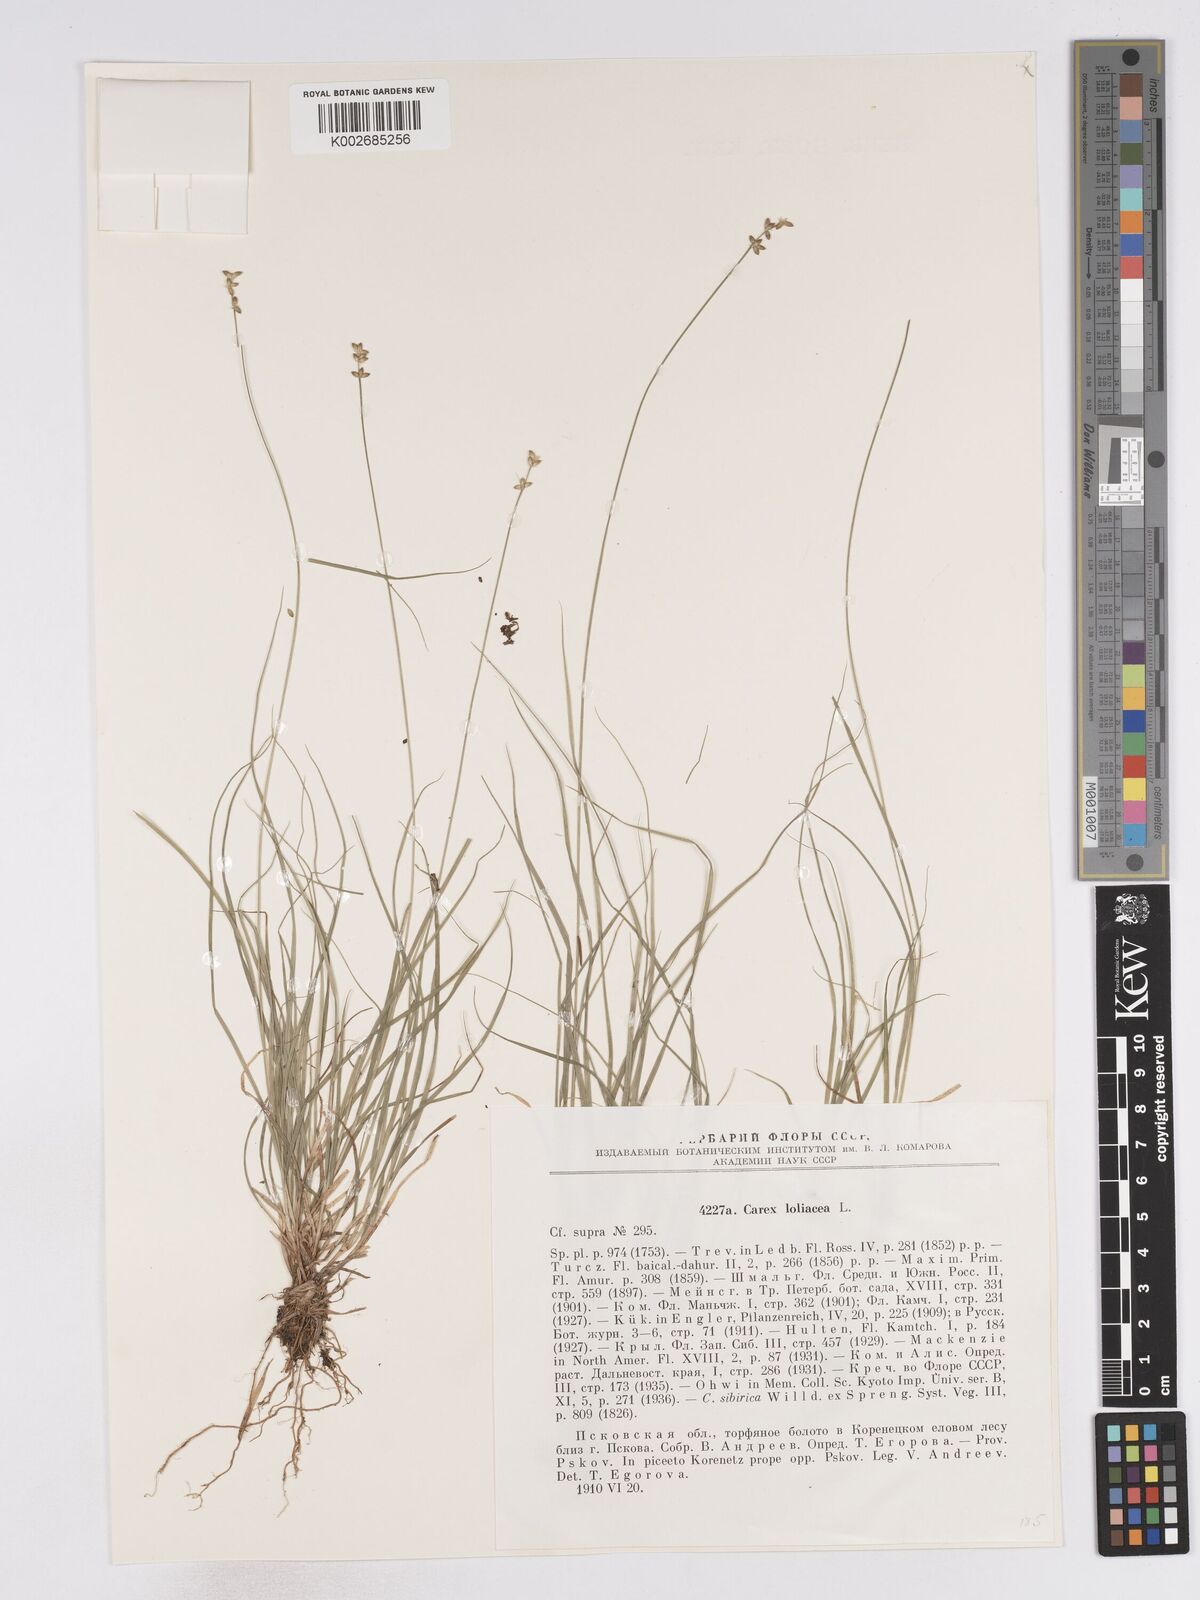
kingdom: Plantae
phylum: Tracheophyta
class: Liliopsida
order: Poales
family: Cyperaceae
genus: Carex
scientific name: Carex loliacea
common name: Ryegrass sedge
